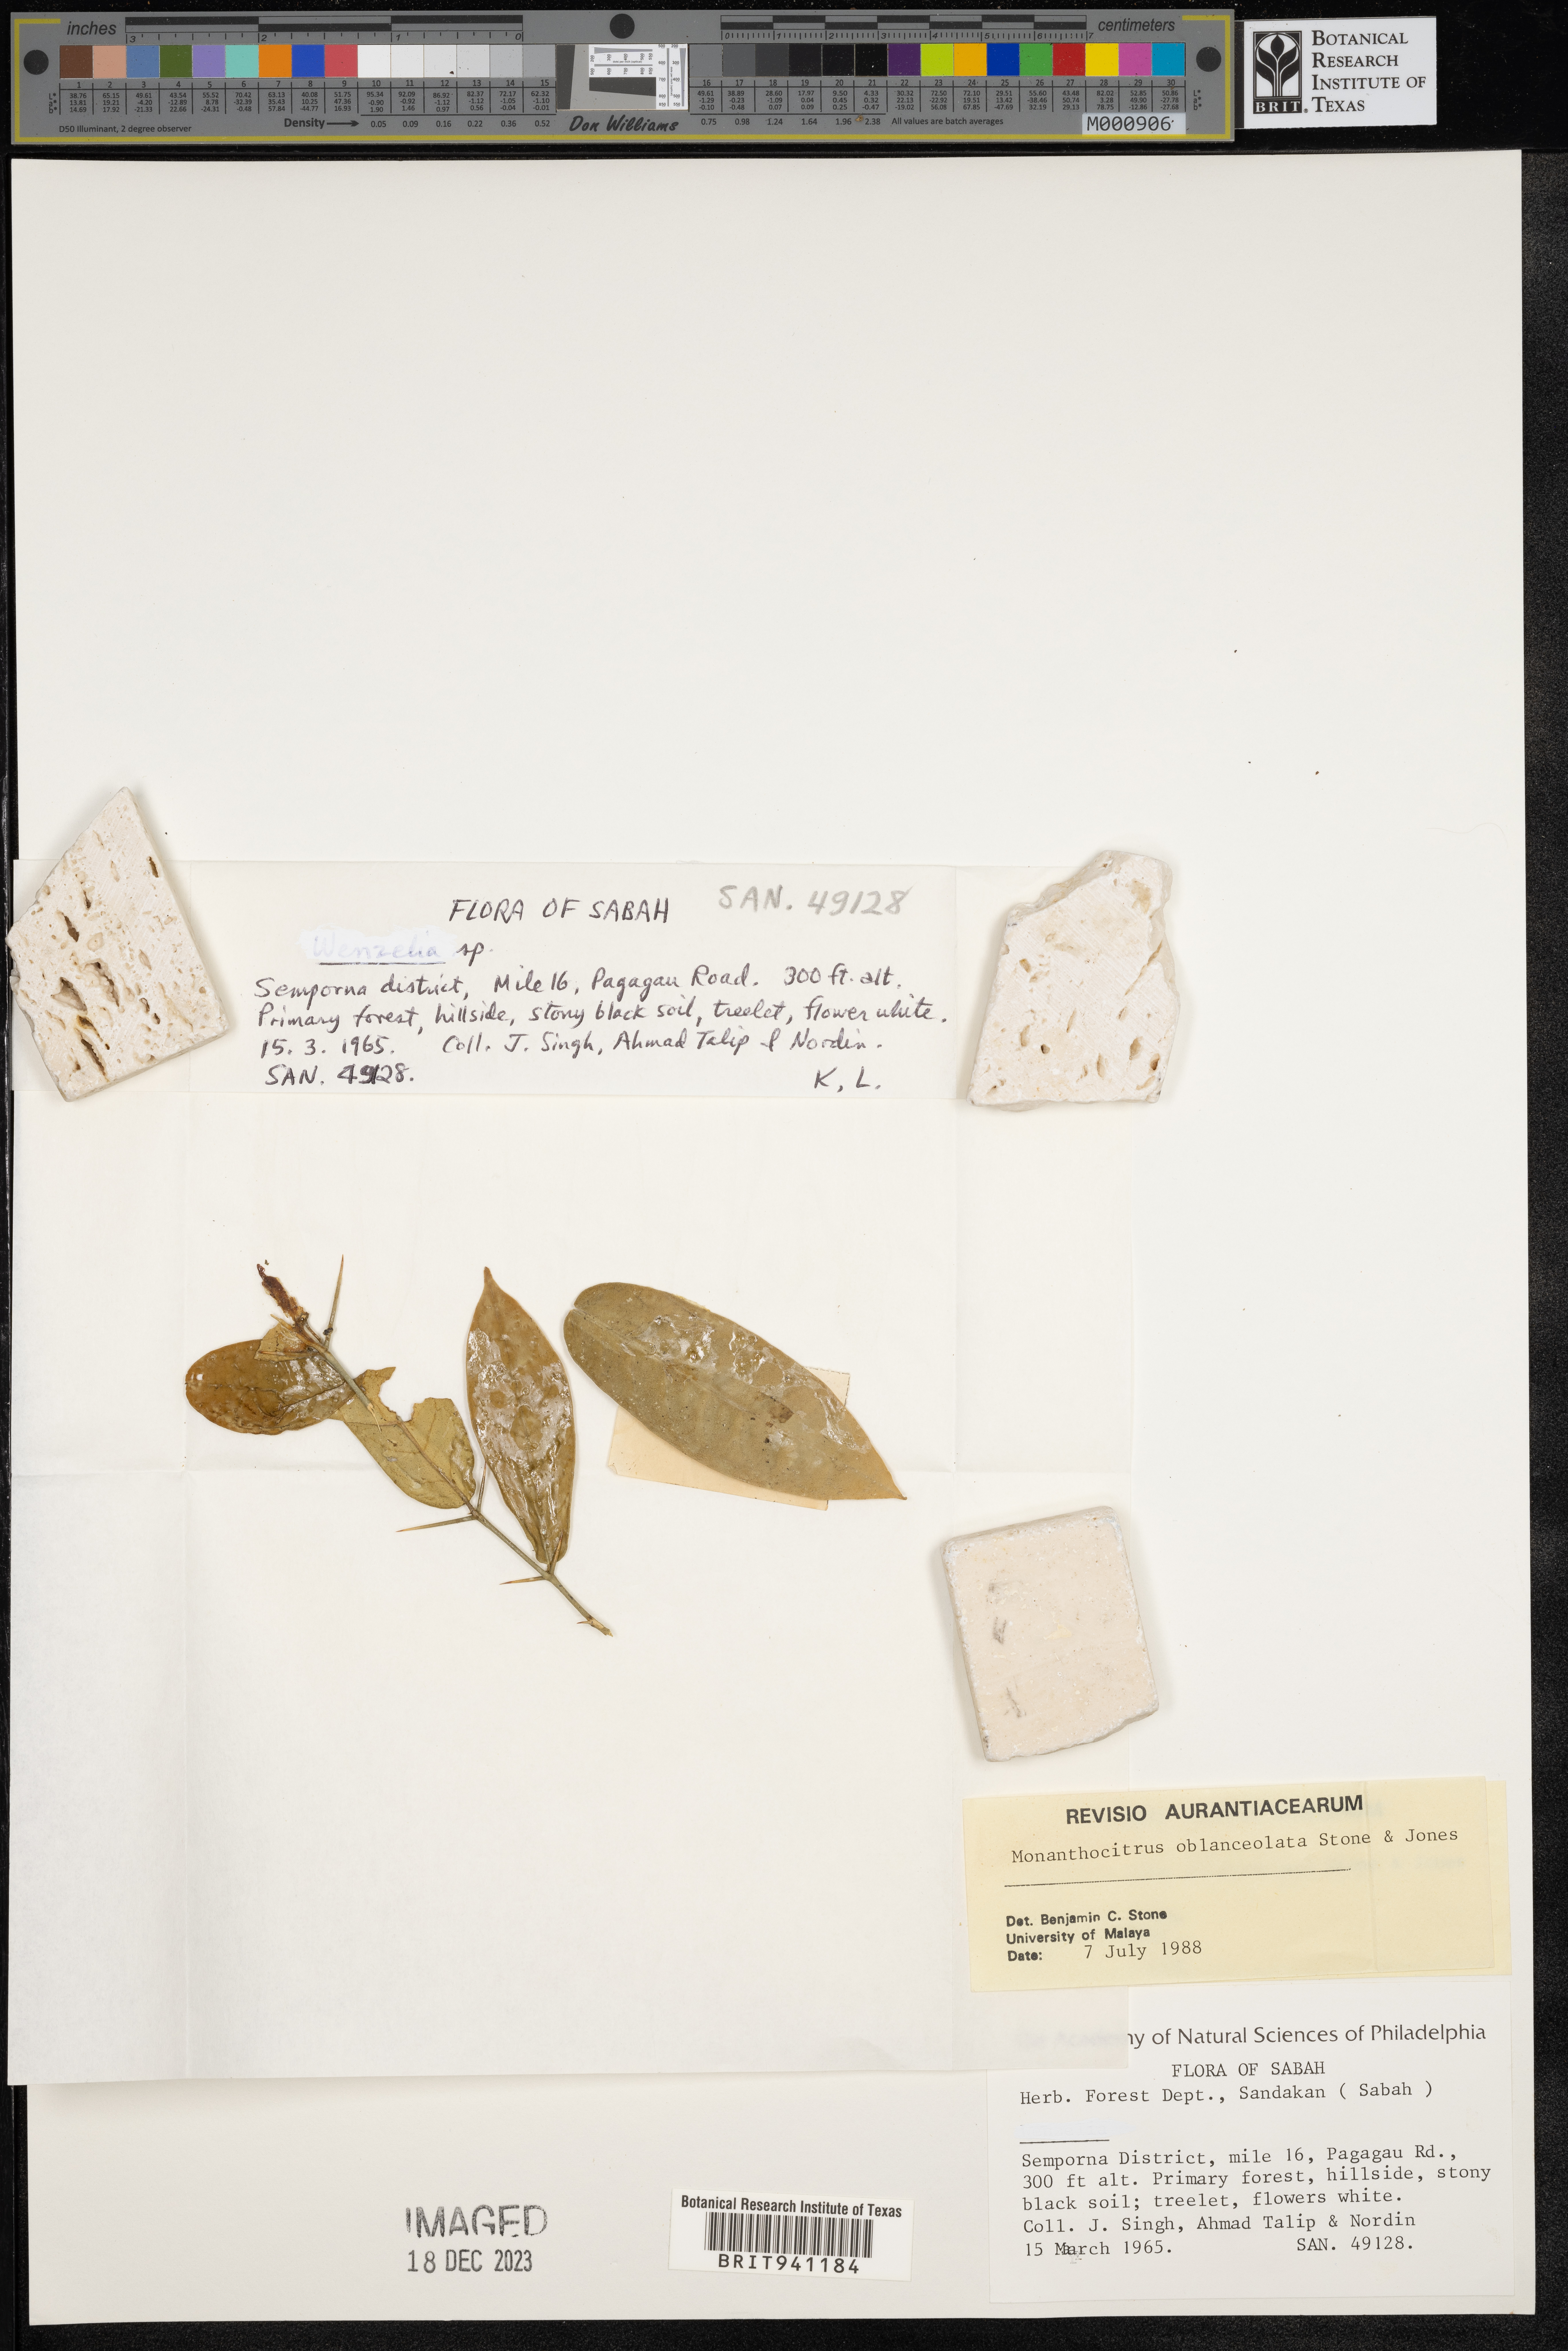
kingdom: Plantae
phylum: Tracheophyta
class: Magnoliopsida
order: Sapindales
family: Rutaceae
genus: Monanthocitrus
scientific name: Monanthocitrus
